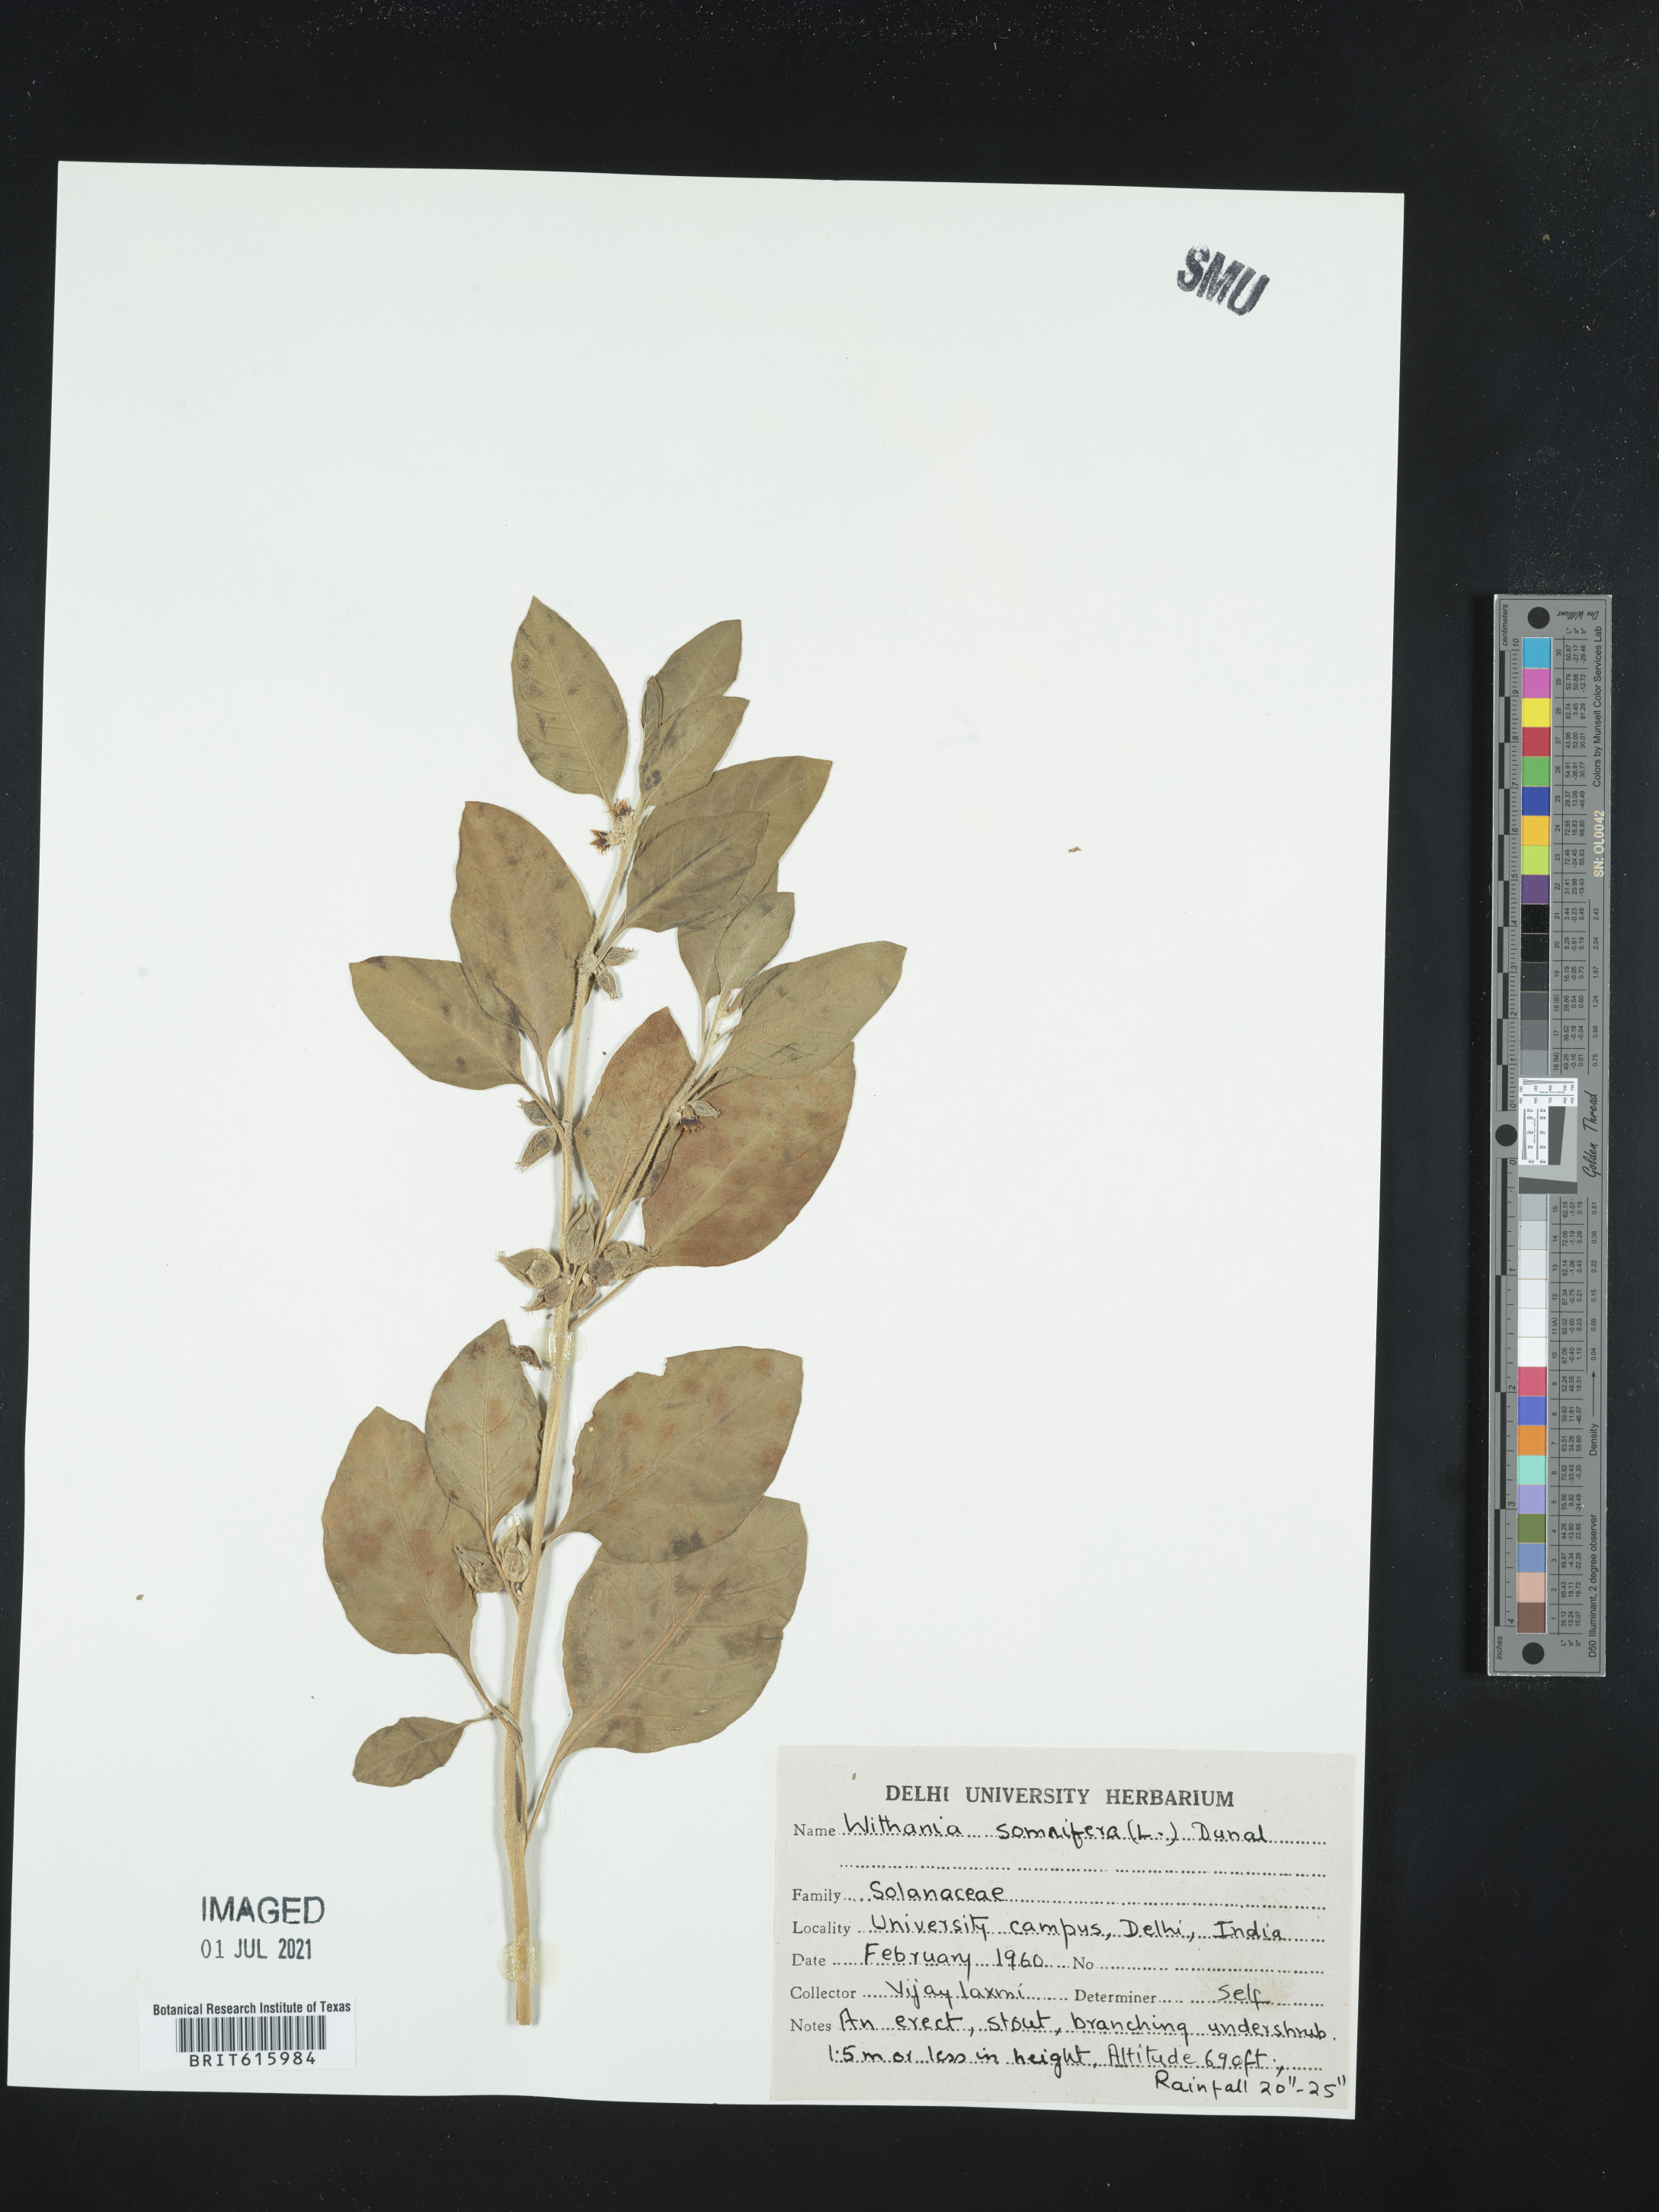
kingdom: Plantae
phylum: Tracheophyta
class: Magnoliopsida
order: Solanales
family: Solanaceae
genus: Withania
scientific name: Withania somnifera
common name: Winter-cherry
